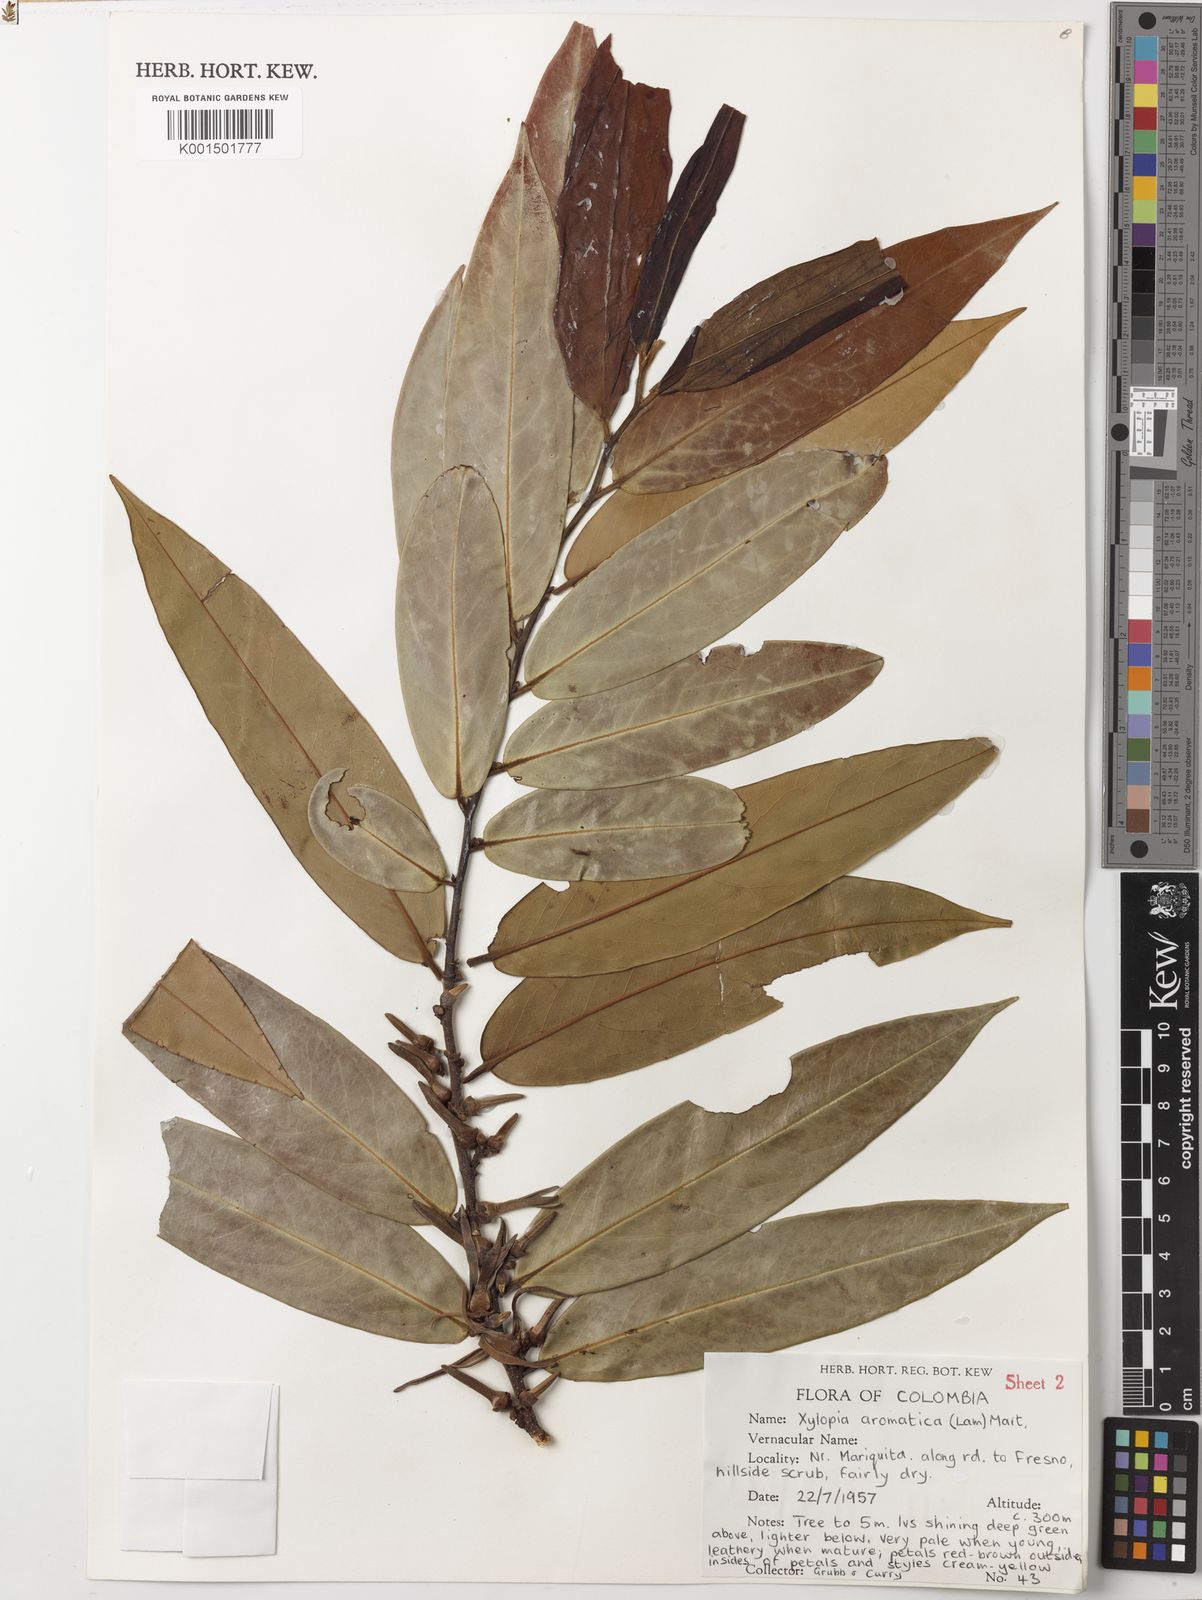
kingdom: Plantae
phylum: Tracheophyta
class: Magnoliopsida
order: Magnoliales
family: Annonaceae
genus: Xylopia
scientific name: Xylopia aromatica
